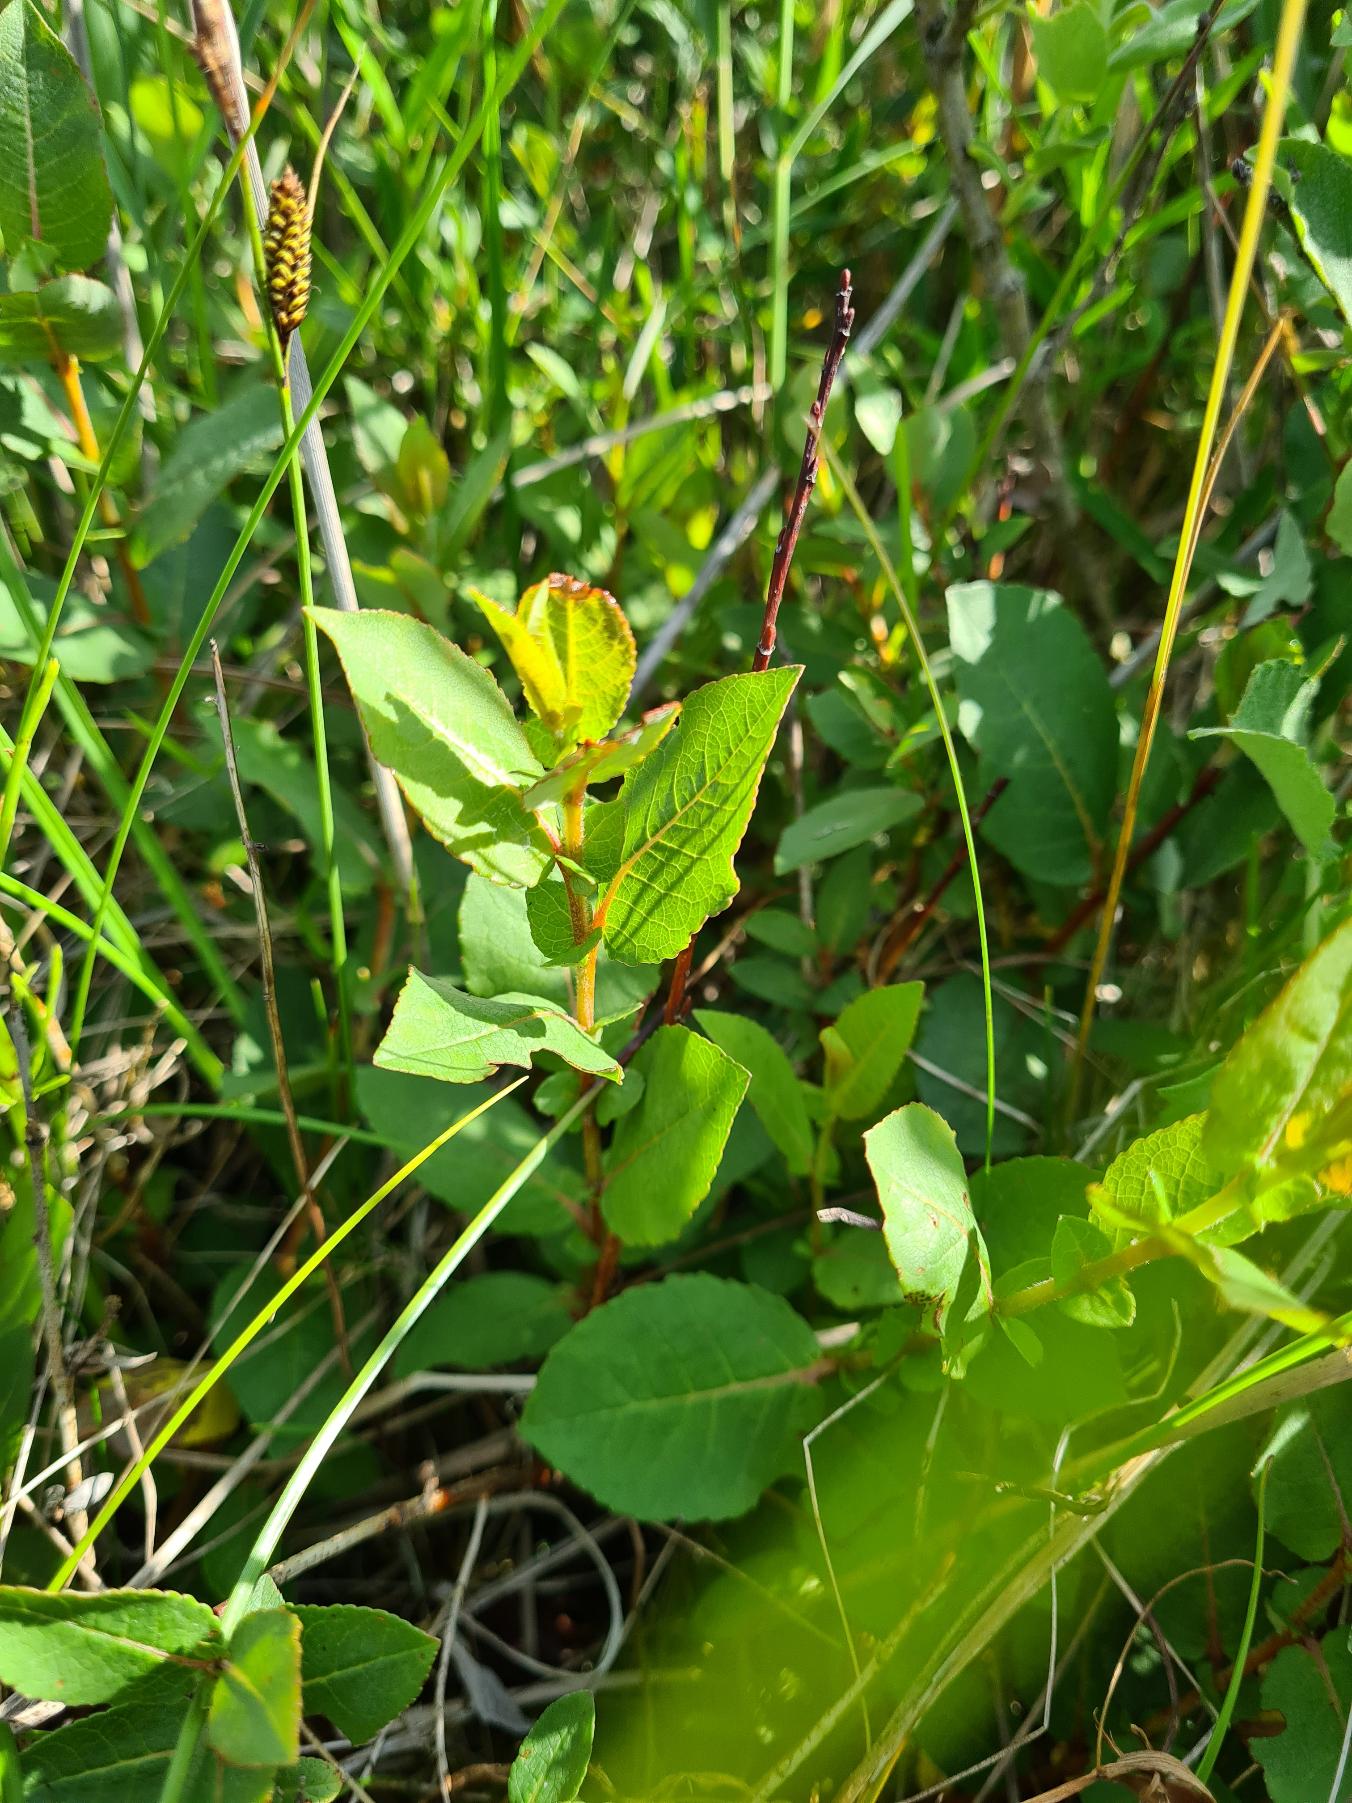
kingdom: Plantae
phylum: Tracheophyta
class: Magnoliopsida
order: Malpighiales
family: Salicaceae
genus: Salix
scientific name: Salix hastata
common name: Spyd-pil
